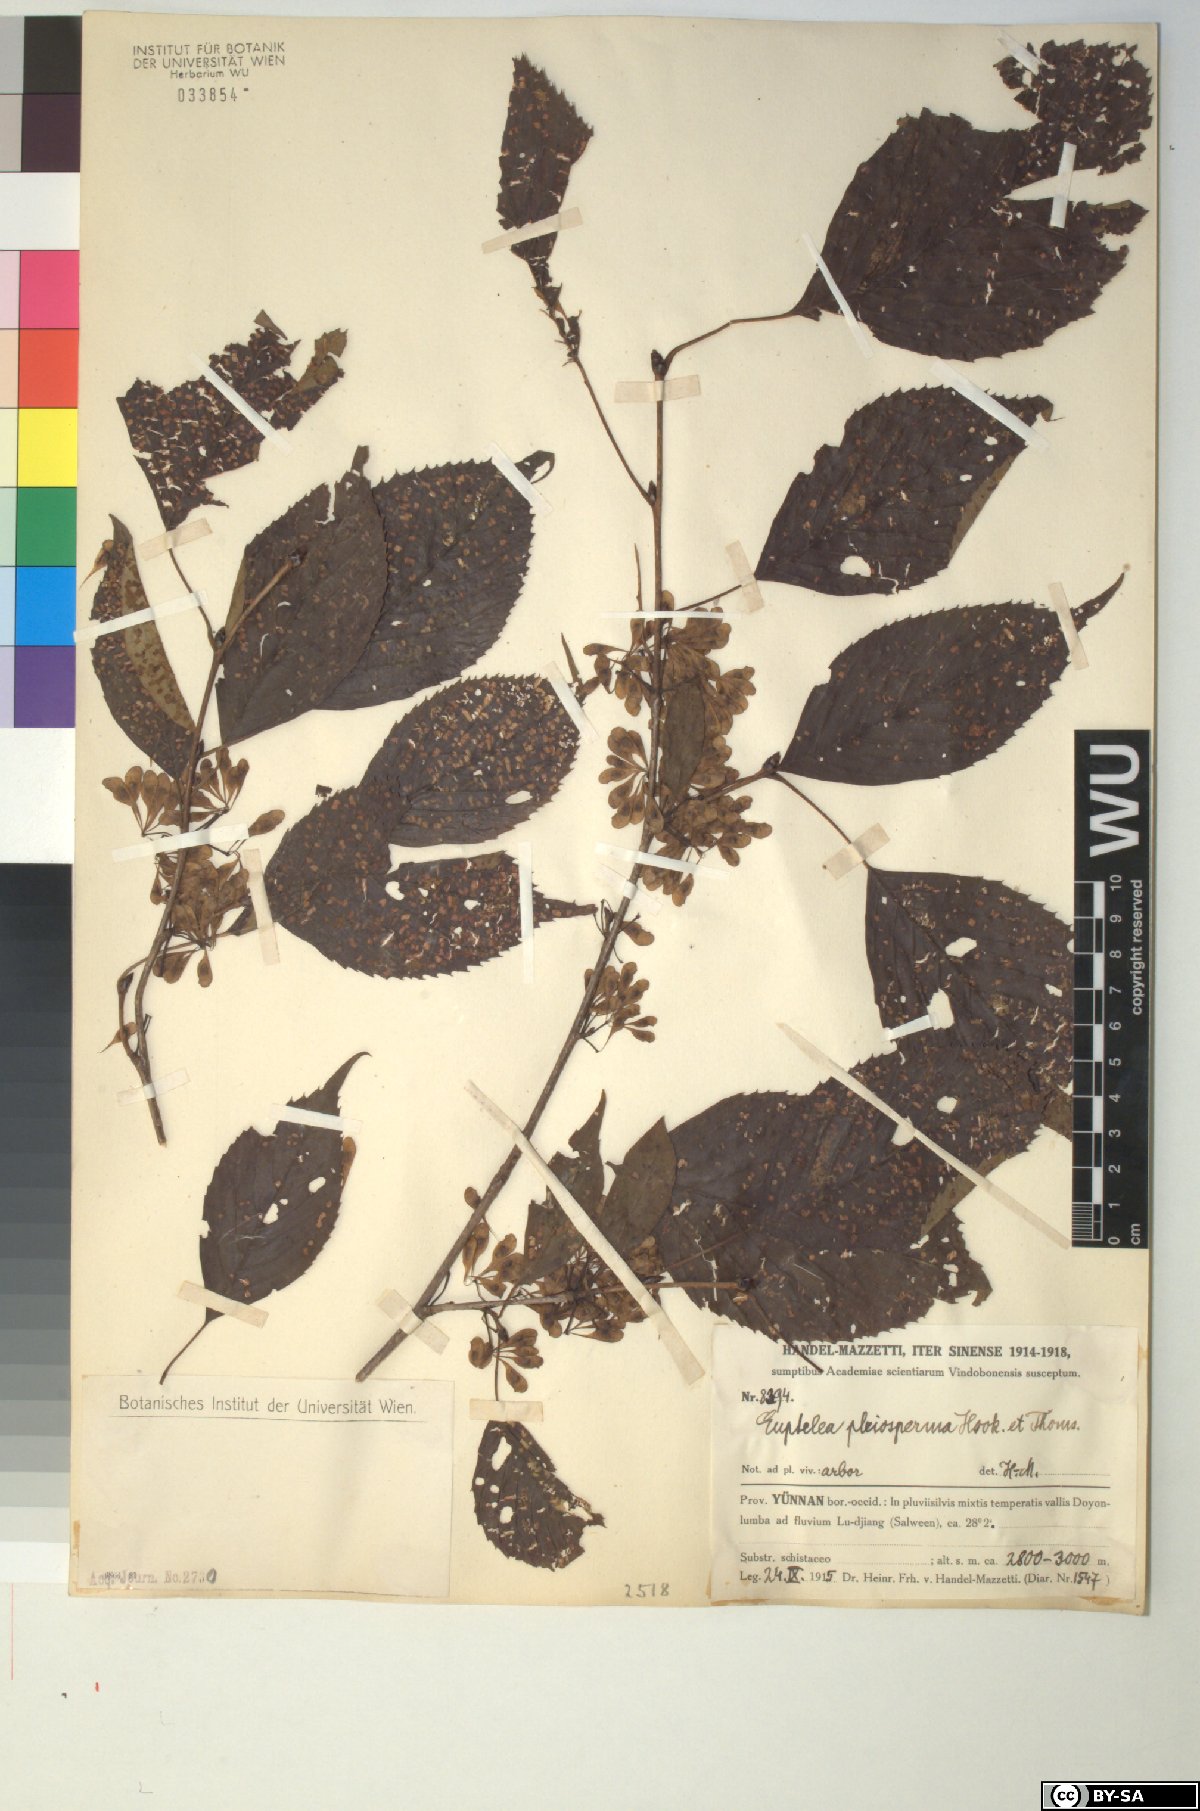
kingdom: Plantae
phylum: Tracheophyta
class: Magnoliopsida
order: Ranunculales
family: Eupteleaceae
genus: Euptelea
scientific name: Euptelea pleiosperma
